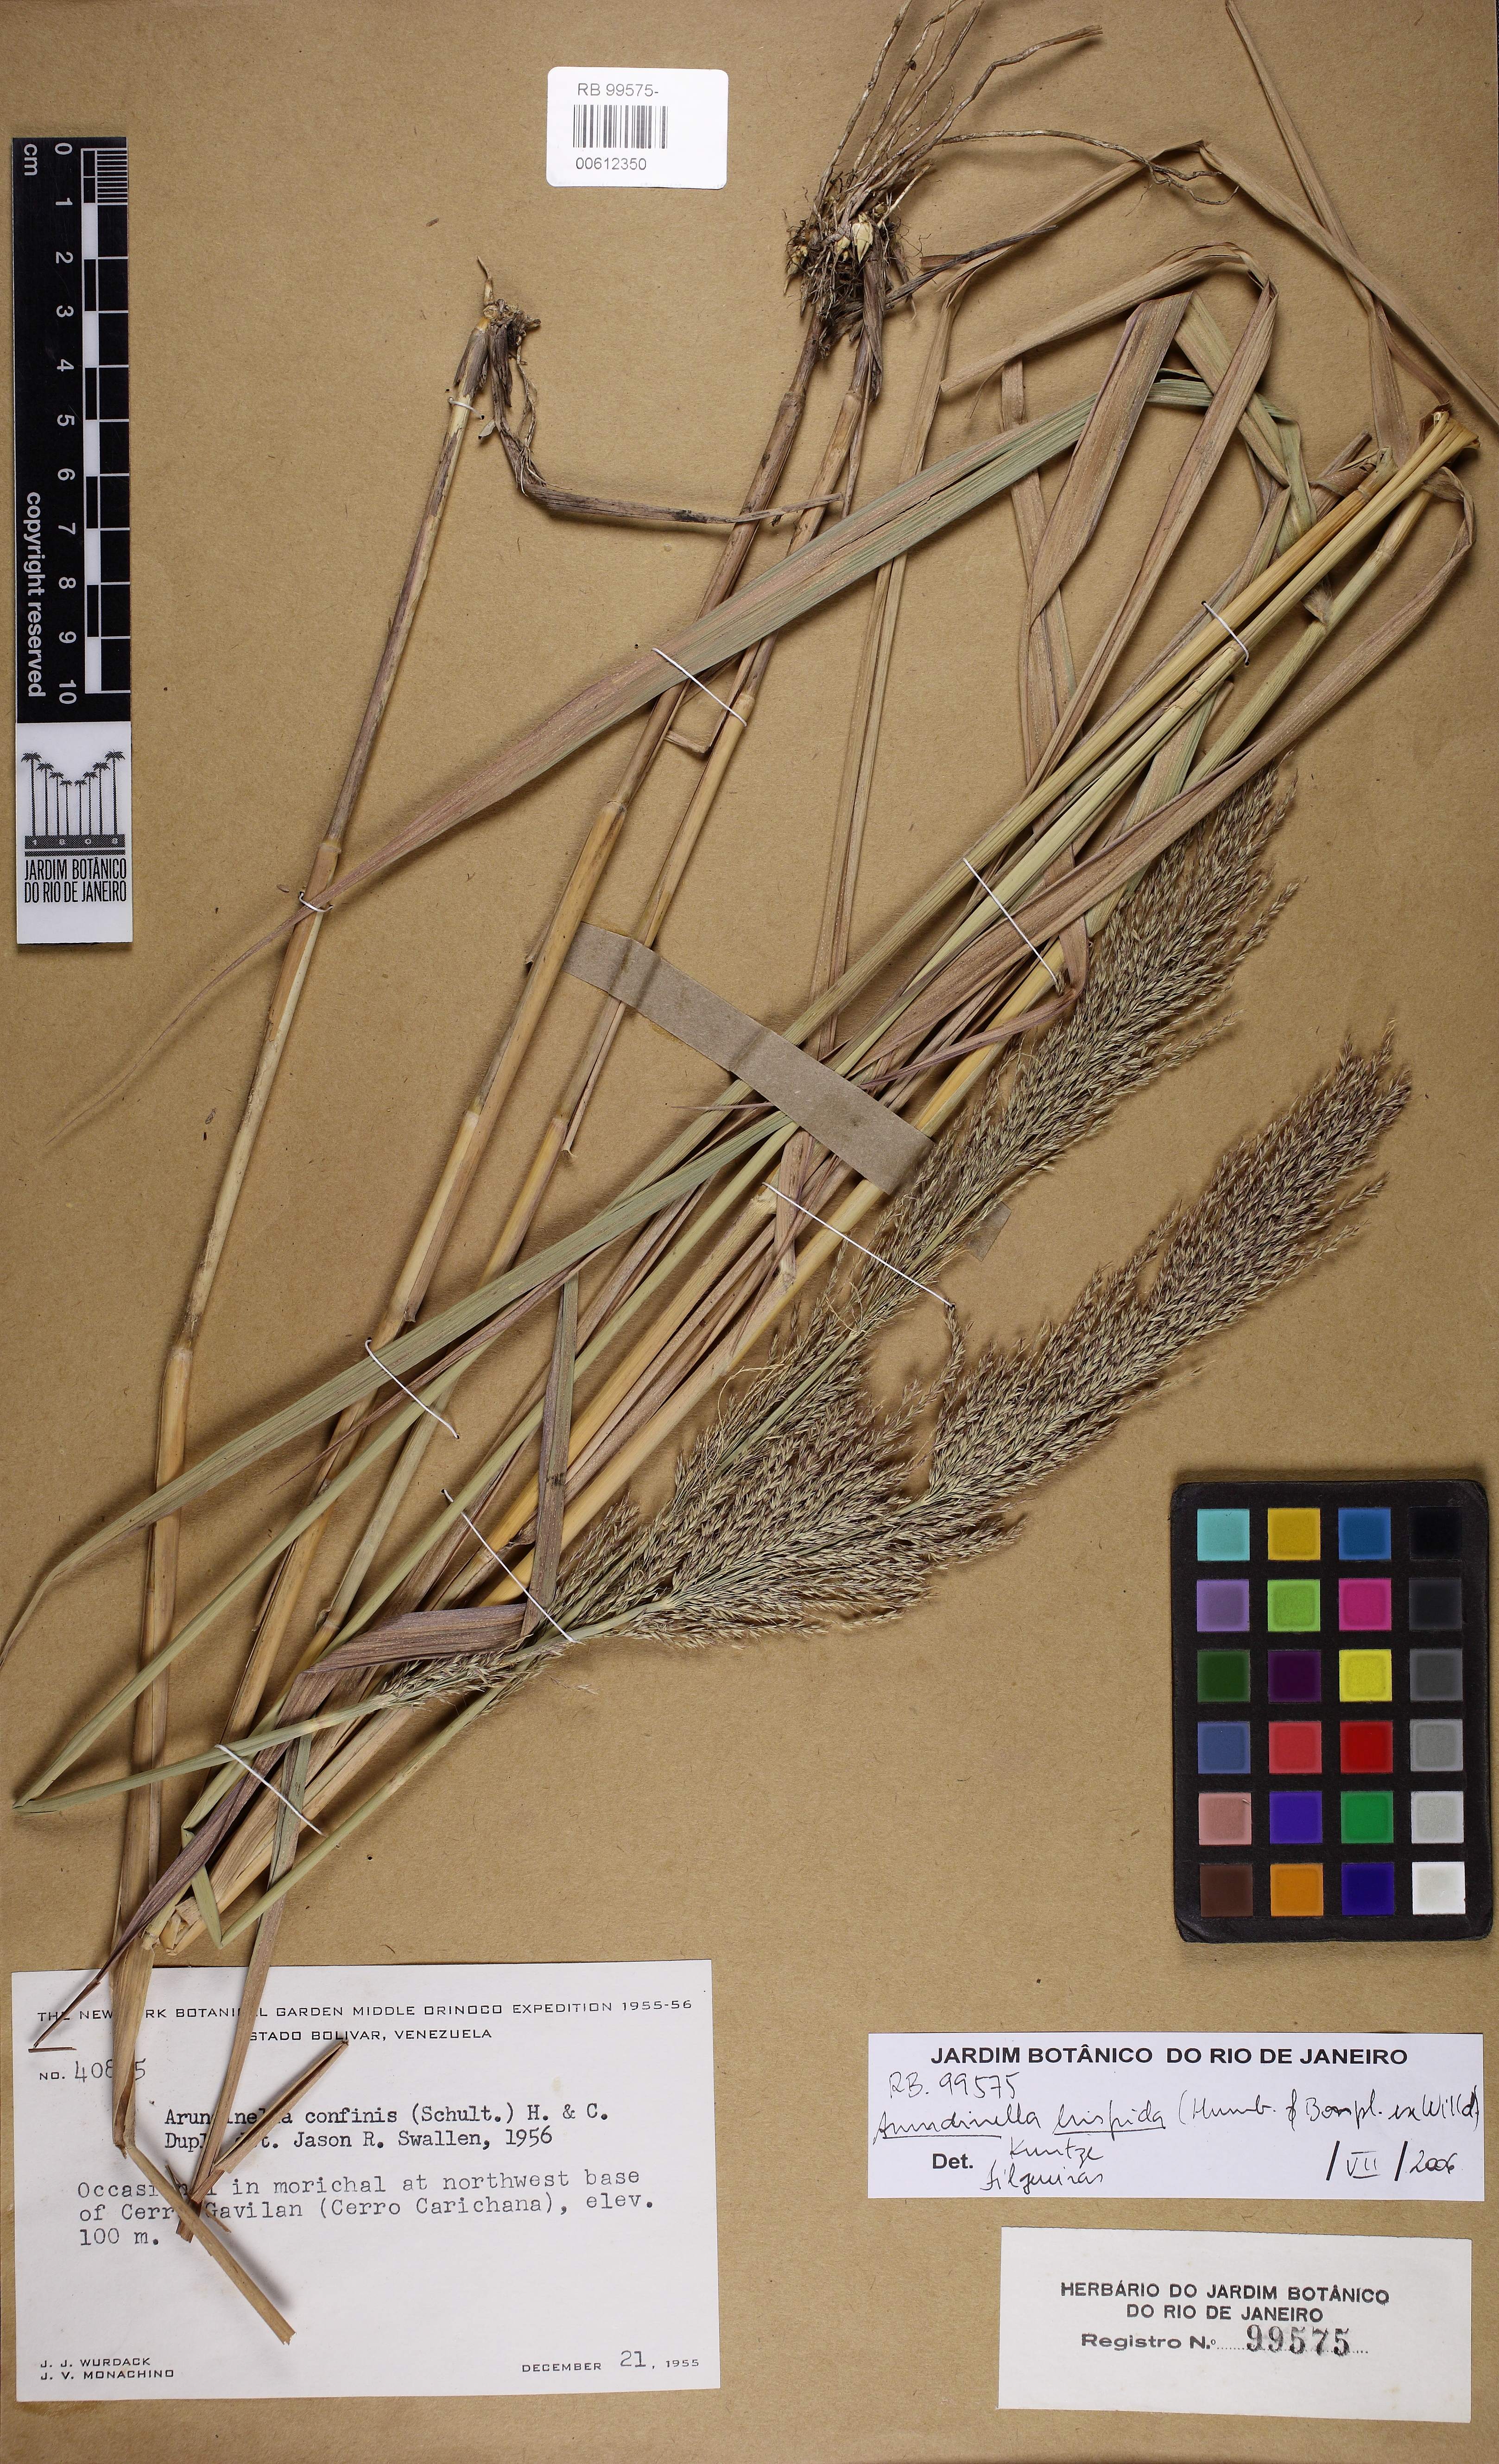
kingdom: Plantae
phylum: Tracheophyta
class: Liliopsida
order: Poales
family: Poaceae
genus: Arundinella
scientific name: Arundinella hispida
